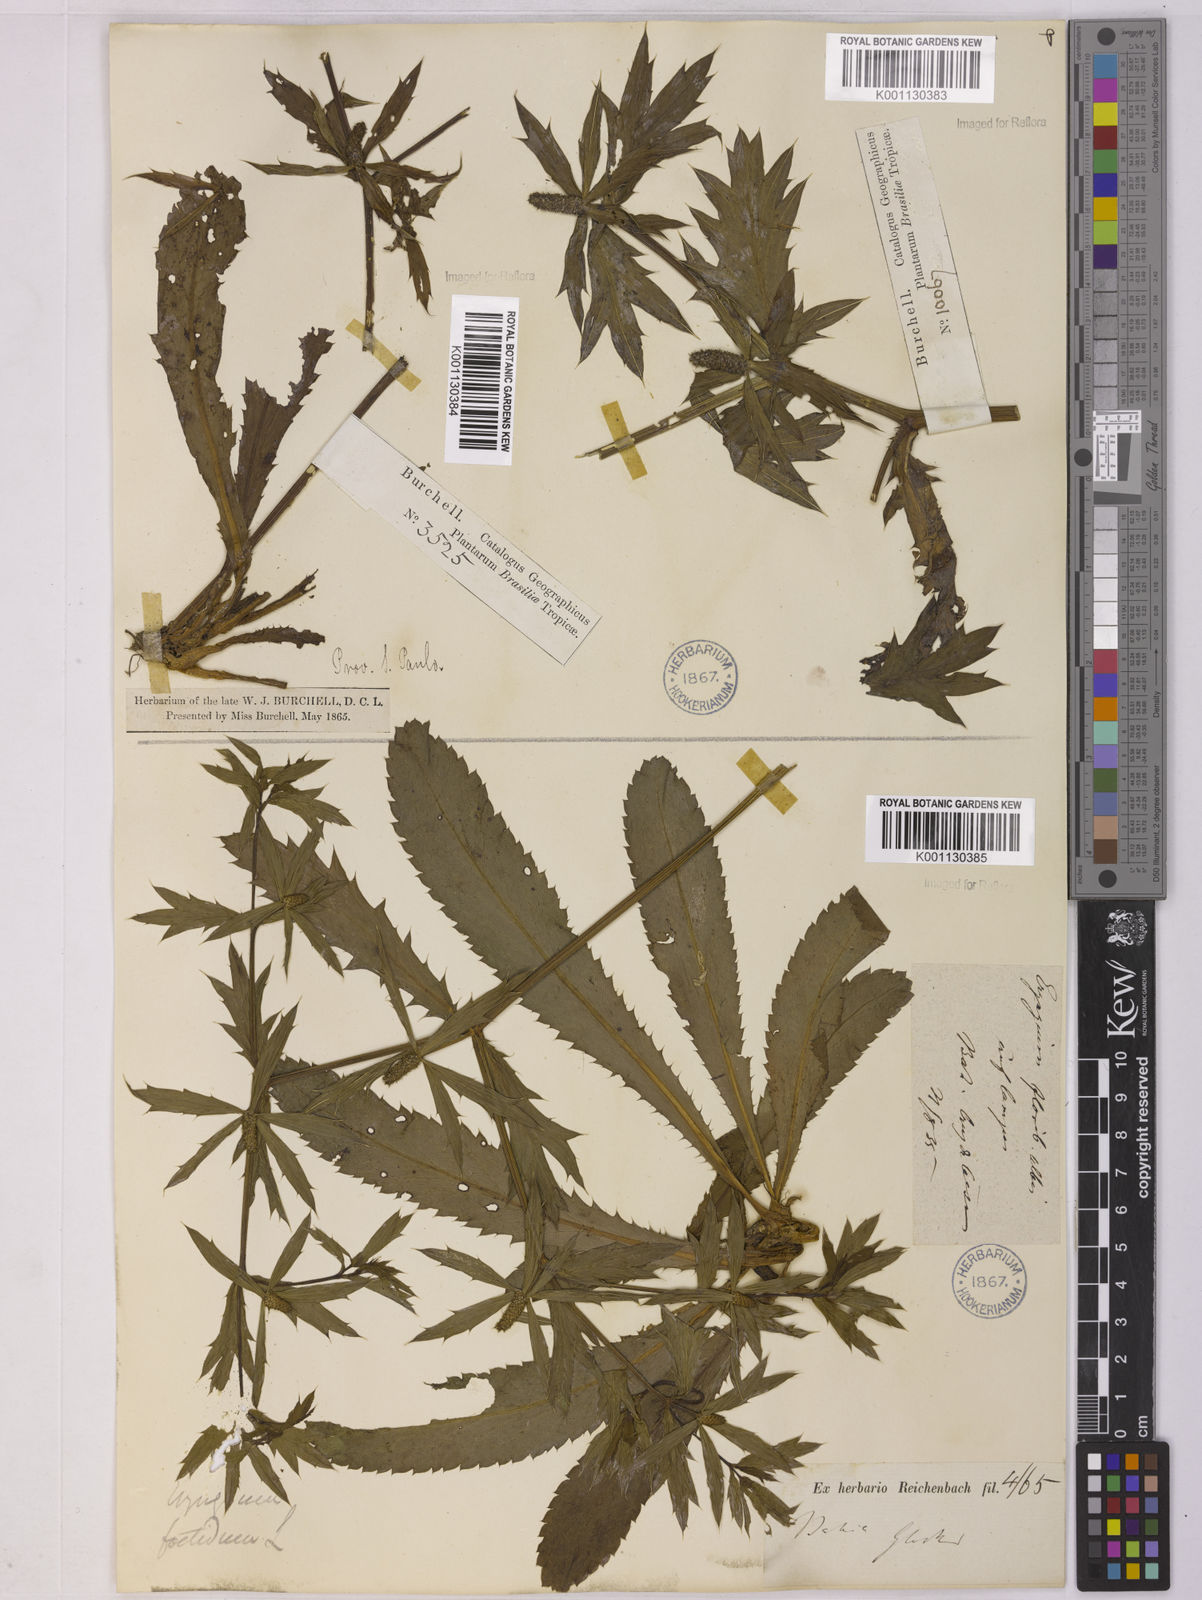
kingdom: Plantae
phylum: Tracheophyta
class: Magnoliopsida
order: Apiales
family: Apiaceae
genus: Eryngium
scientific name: Eryngium foetidum
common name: Fitweed
